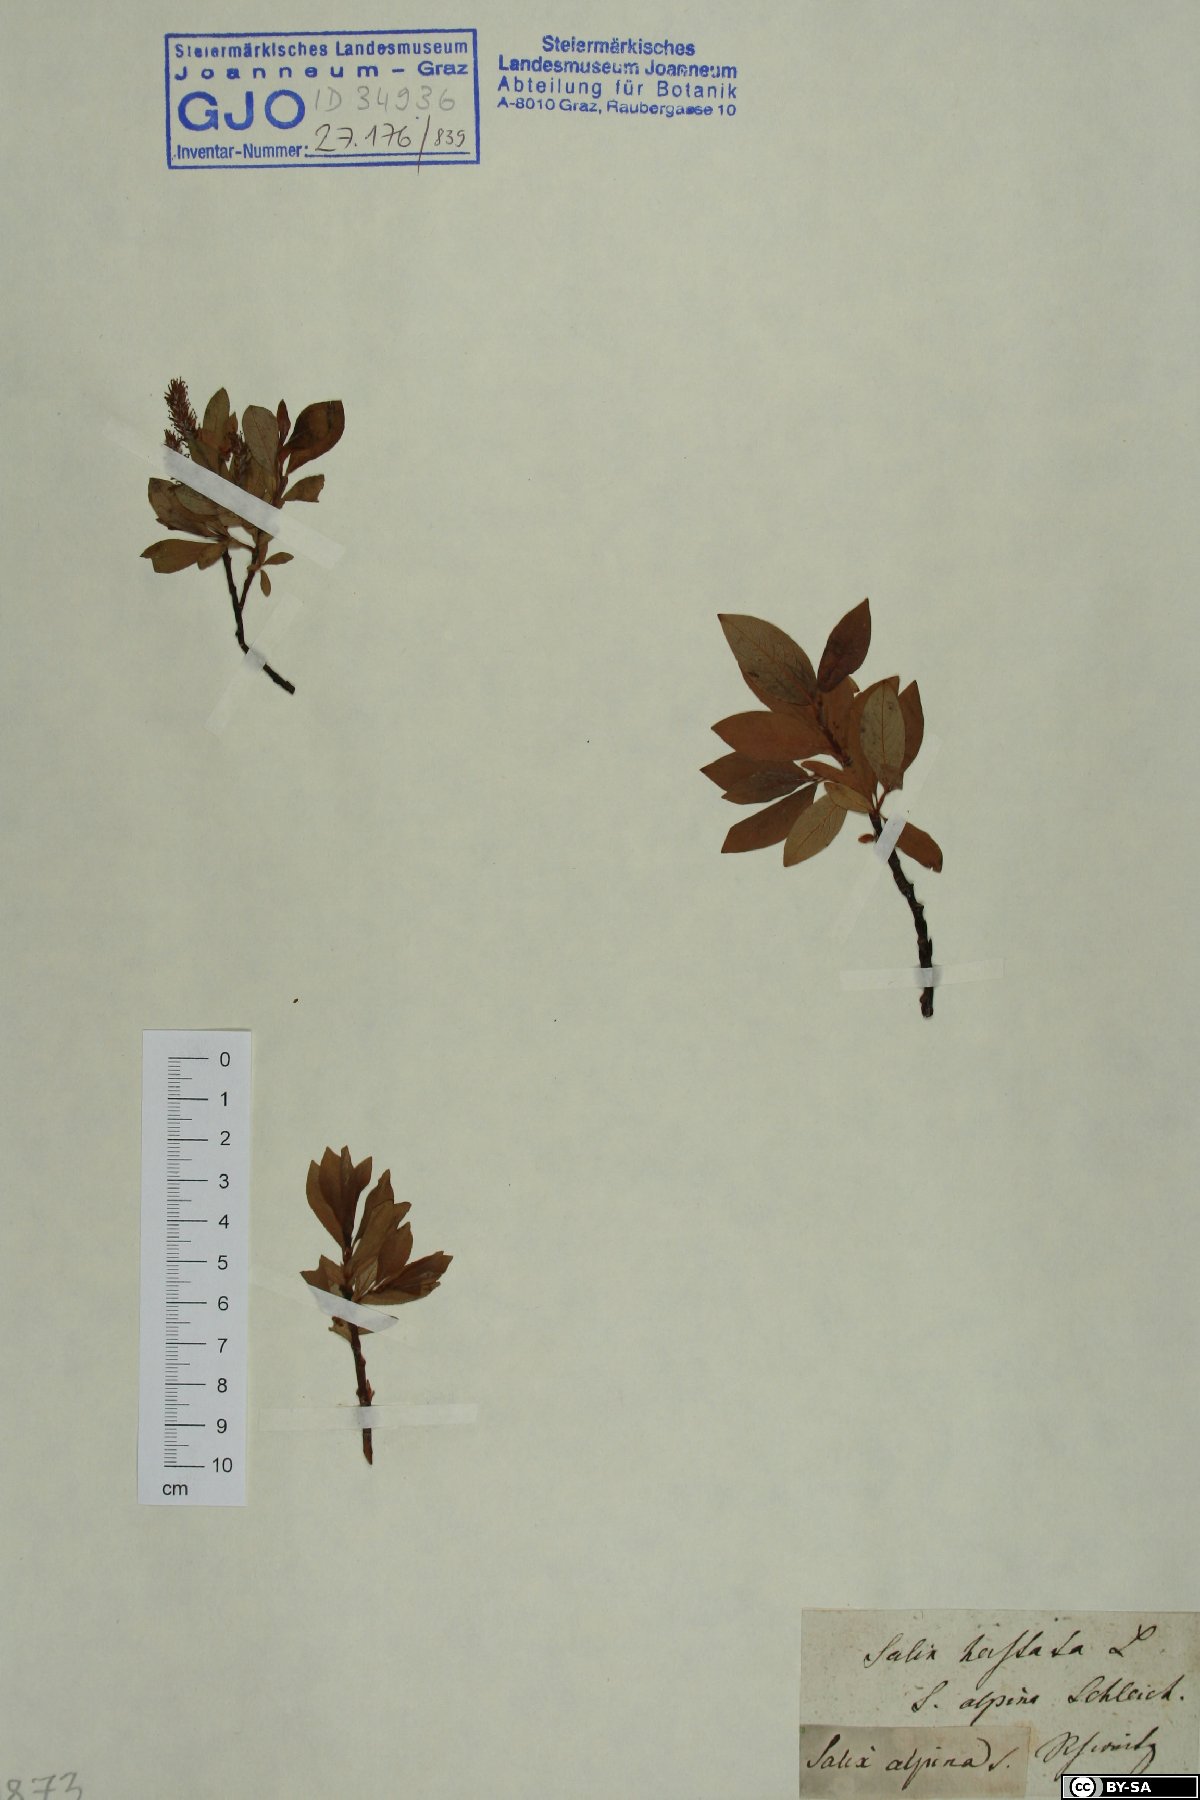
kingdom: Plantae
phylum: Tracheophyta
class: Magnoliopsida
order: Malpighiales
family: Salicaceae
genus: Salix
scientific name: Salix hastata
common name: Halberd willow
